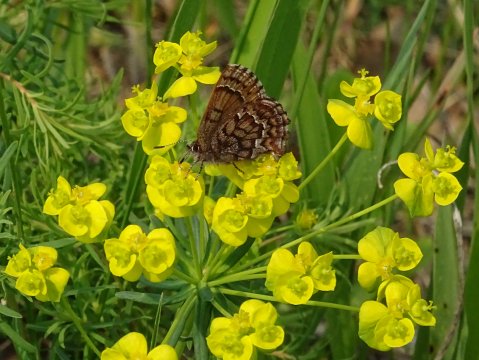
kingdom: Animalia
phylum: Arthropoda
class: Insecta
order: Lepidoptera
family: Lycaenidae
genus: Incisalia
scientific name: Incisalia niphon
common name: Eastern Pine Elfin
